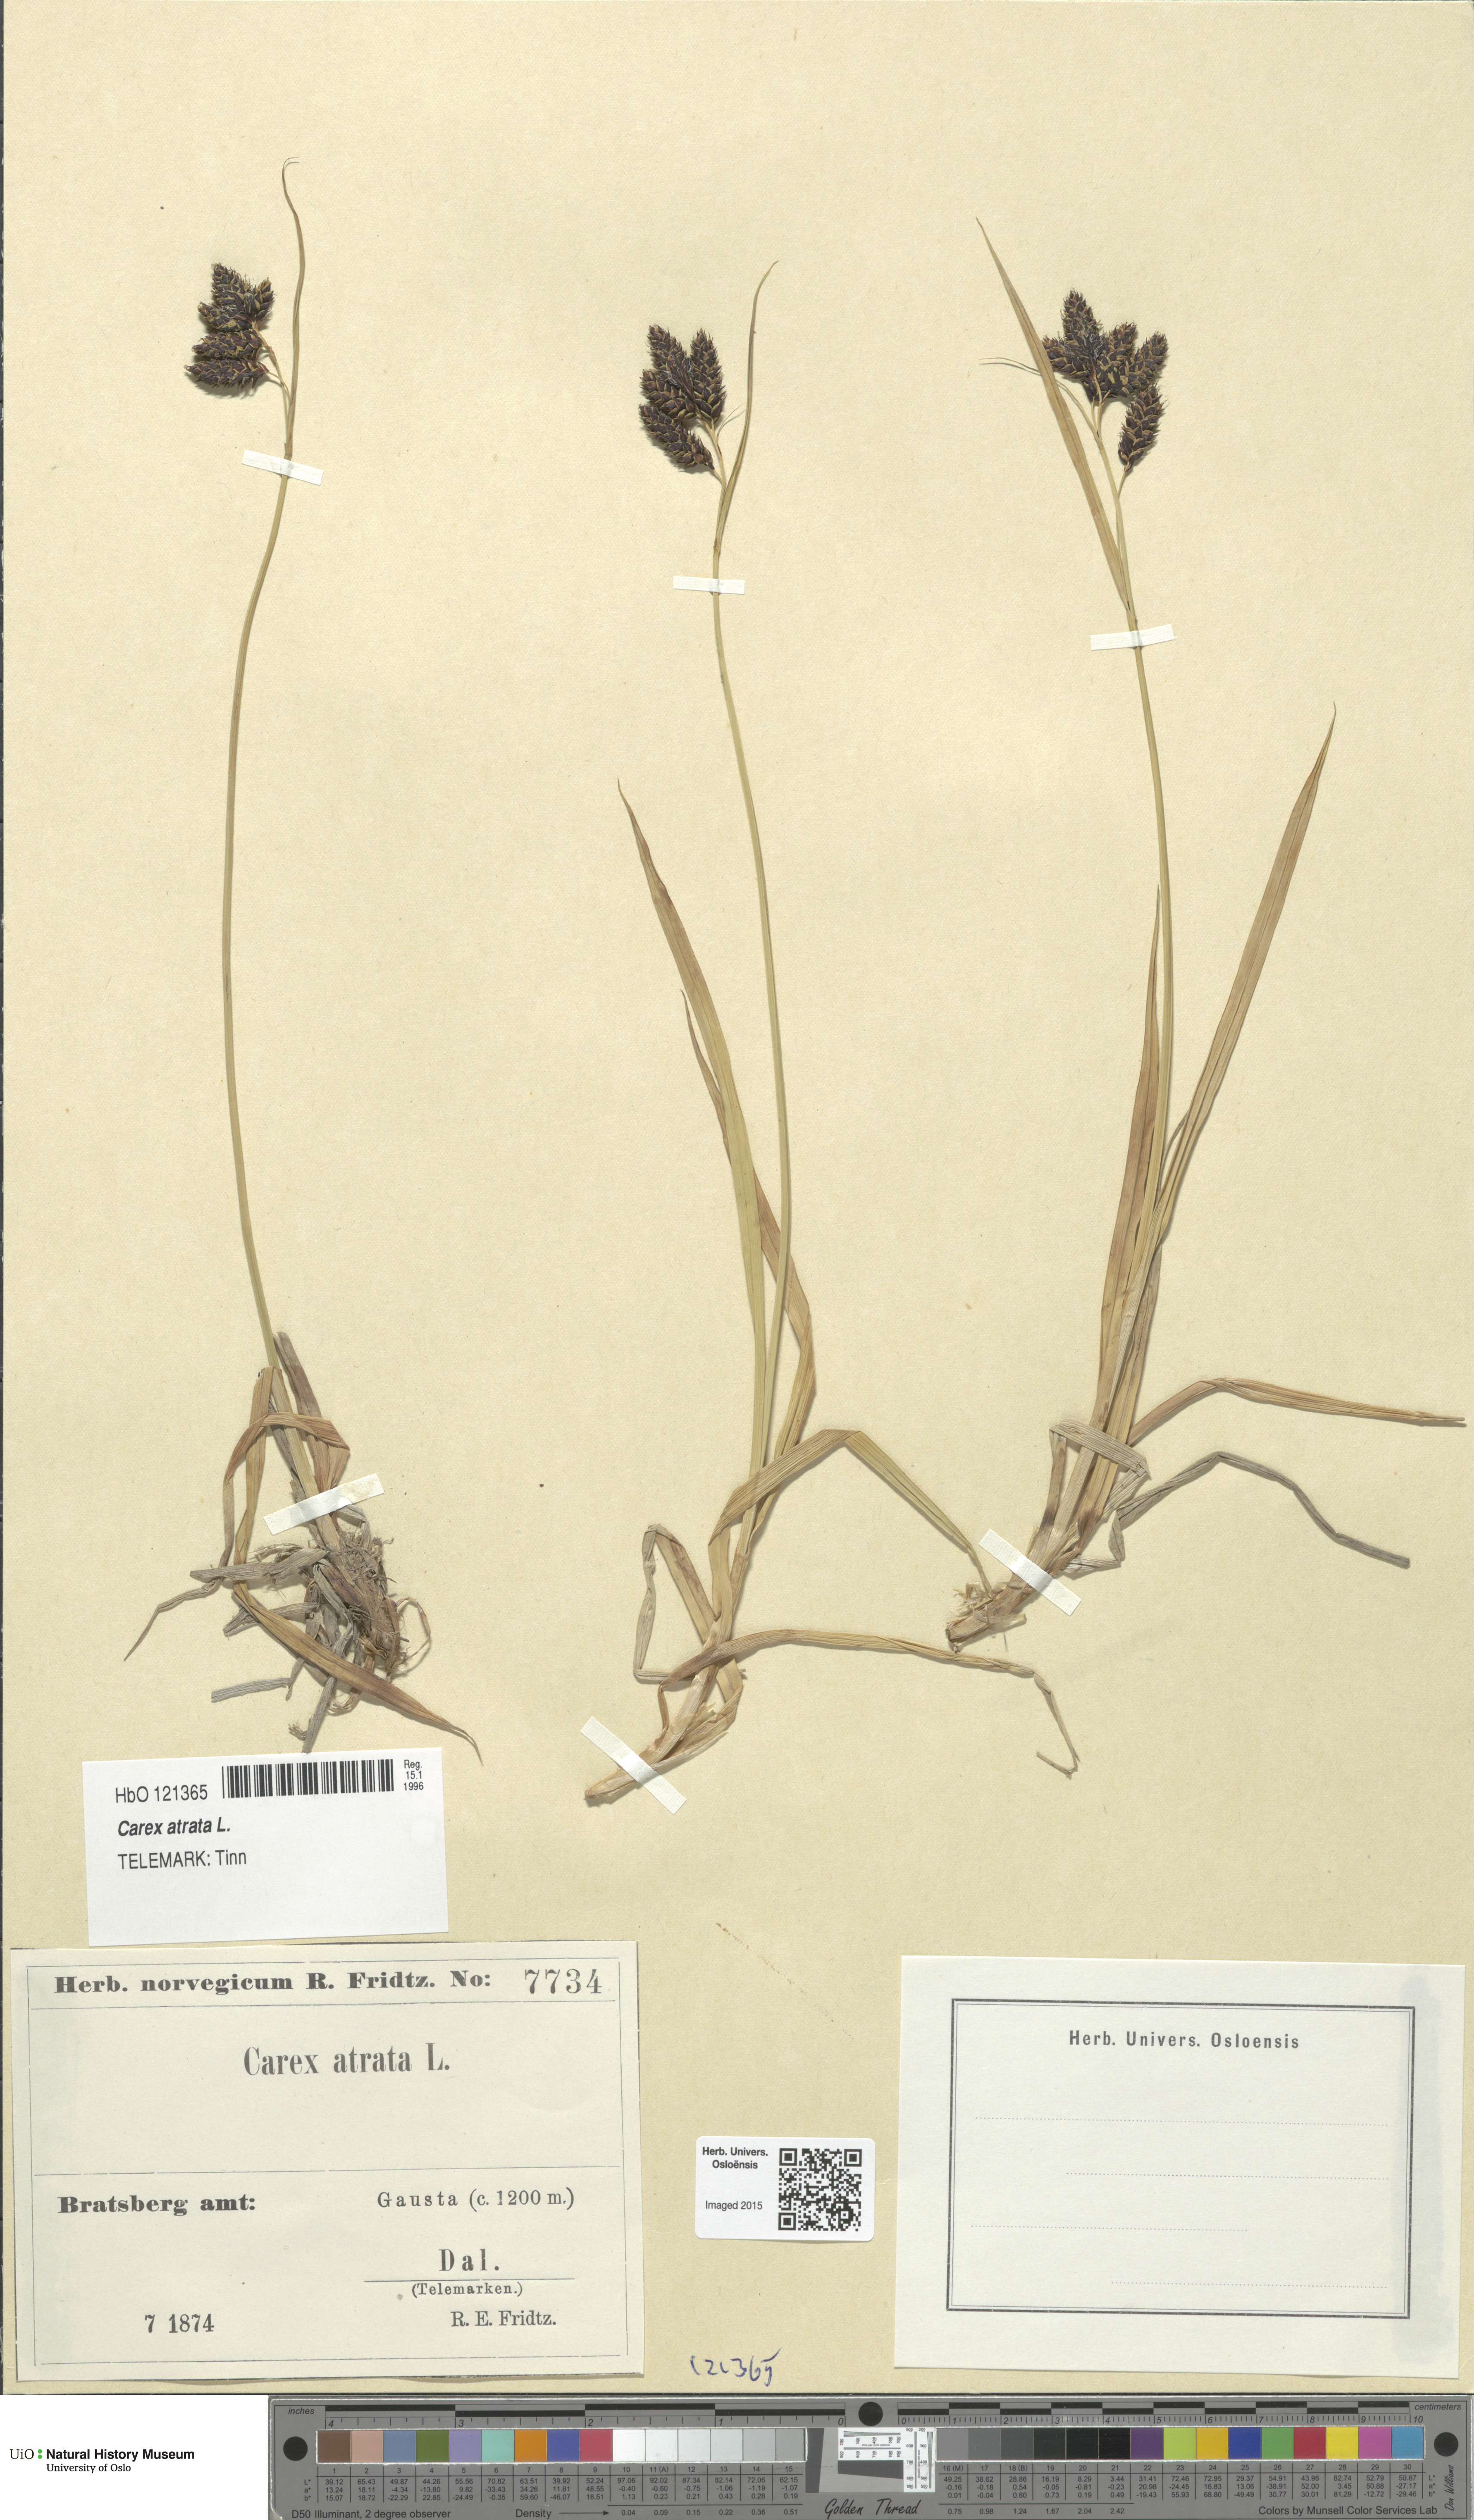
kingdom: Plantae
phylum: Tracheophyta
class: Liliopsida
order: Poales
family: Cyperaceae
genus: Carex
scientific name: Carex atrata
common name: Black alpine sedge
